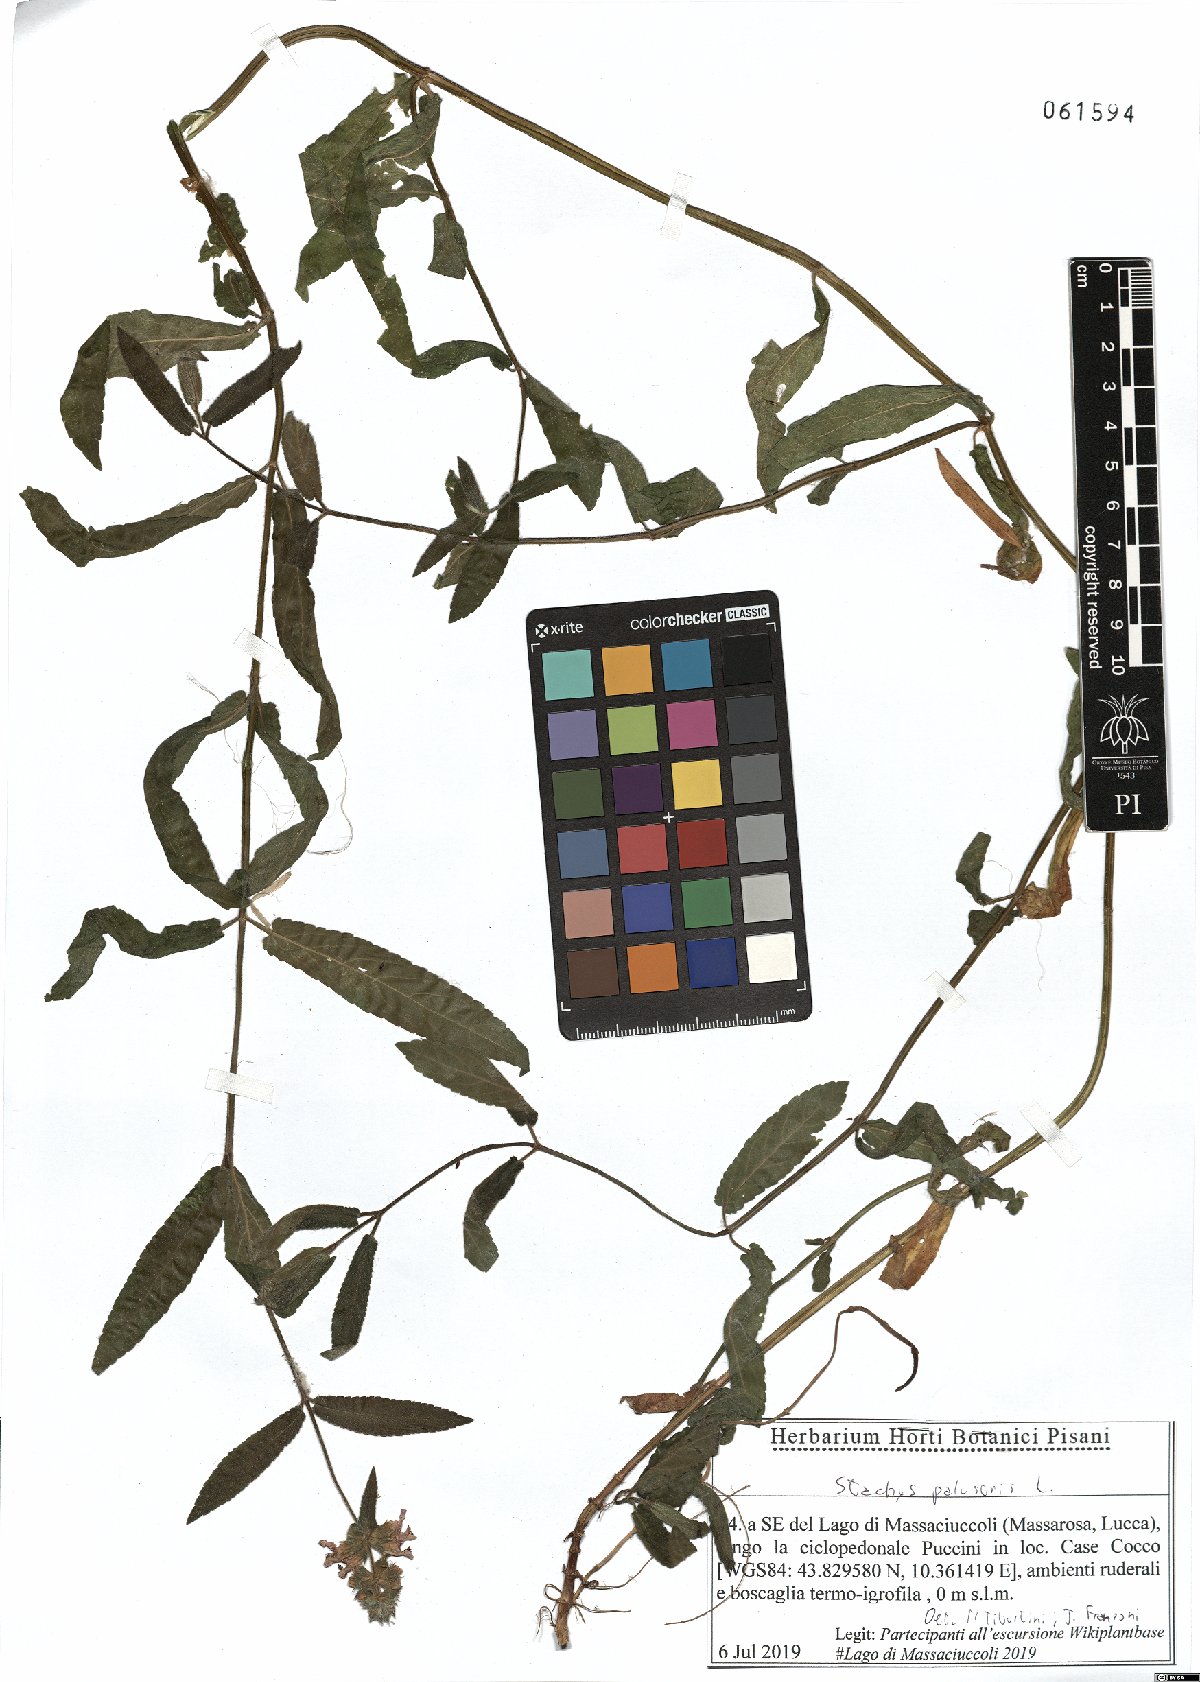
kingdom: Plantae
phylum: Tracheophyta
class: Magnoliopsida
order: Lamiales
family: Lamiaceae
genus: Stachys
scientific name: Stachys palustris
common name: Marsh woundwort
